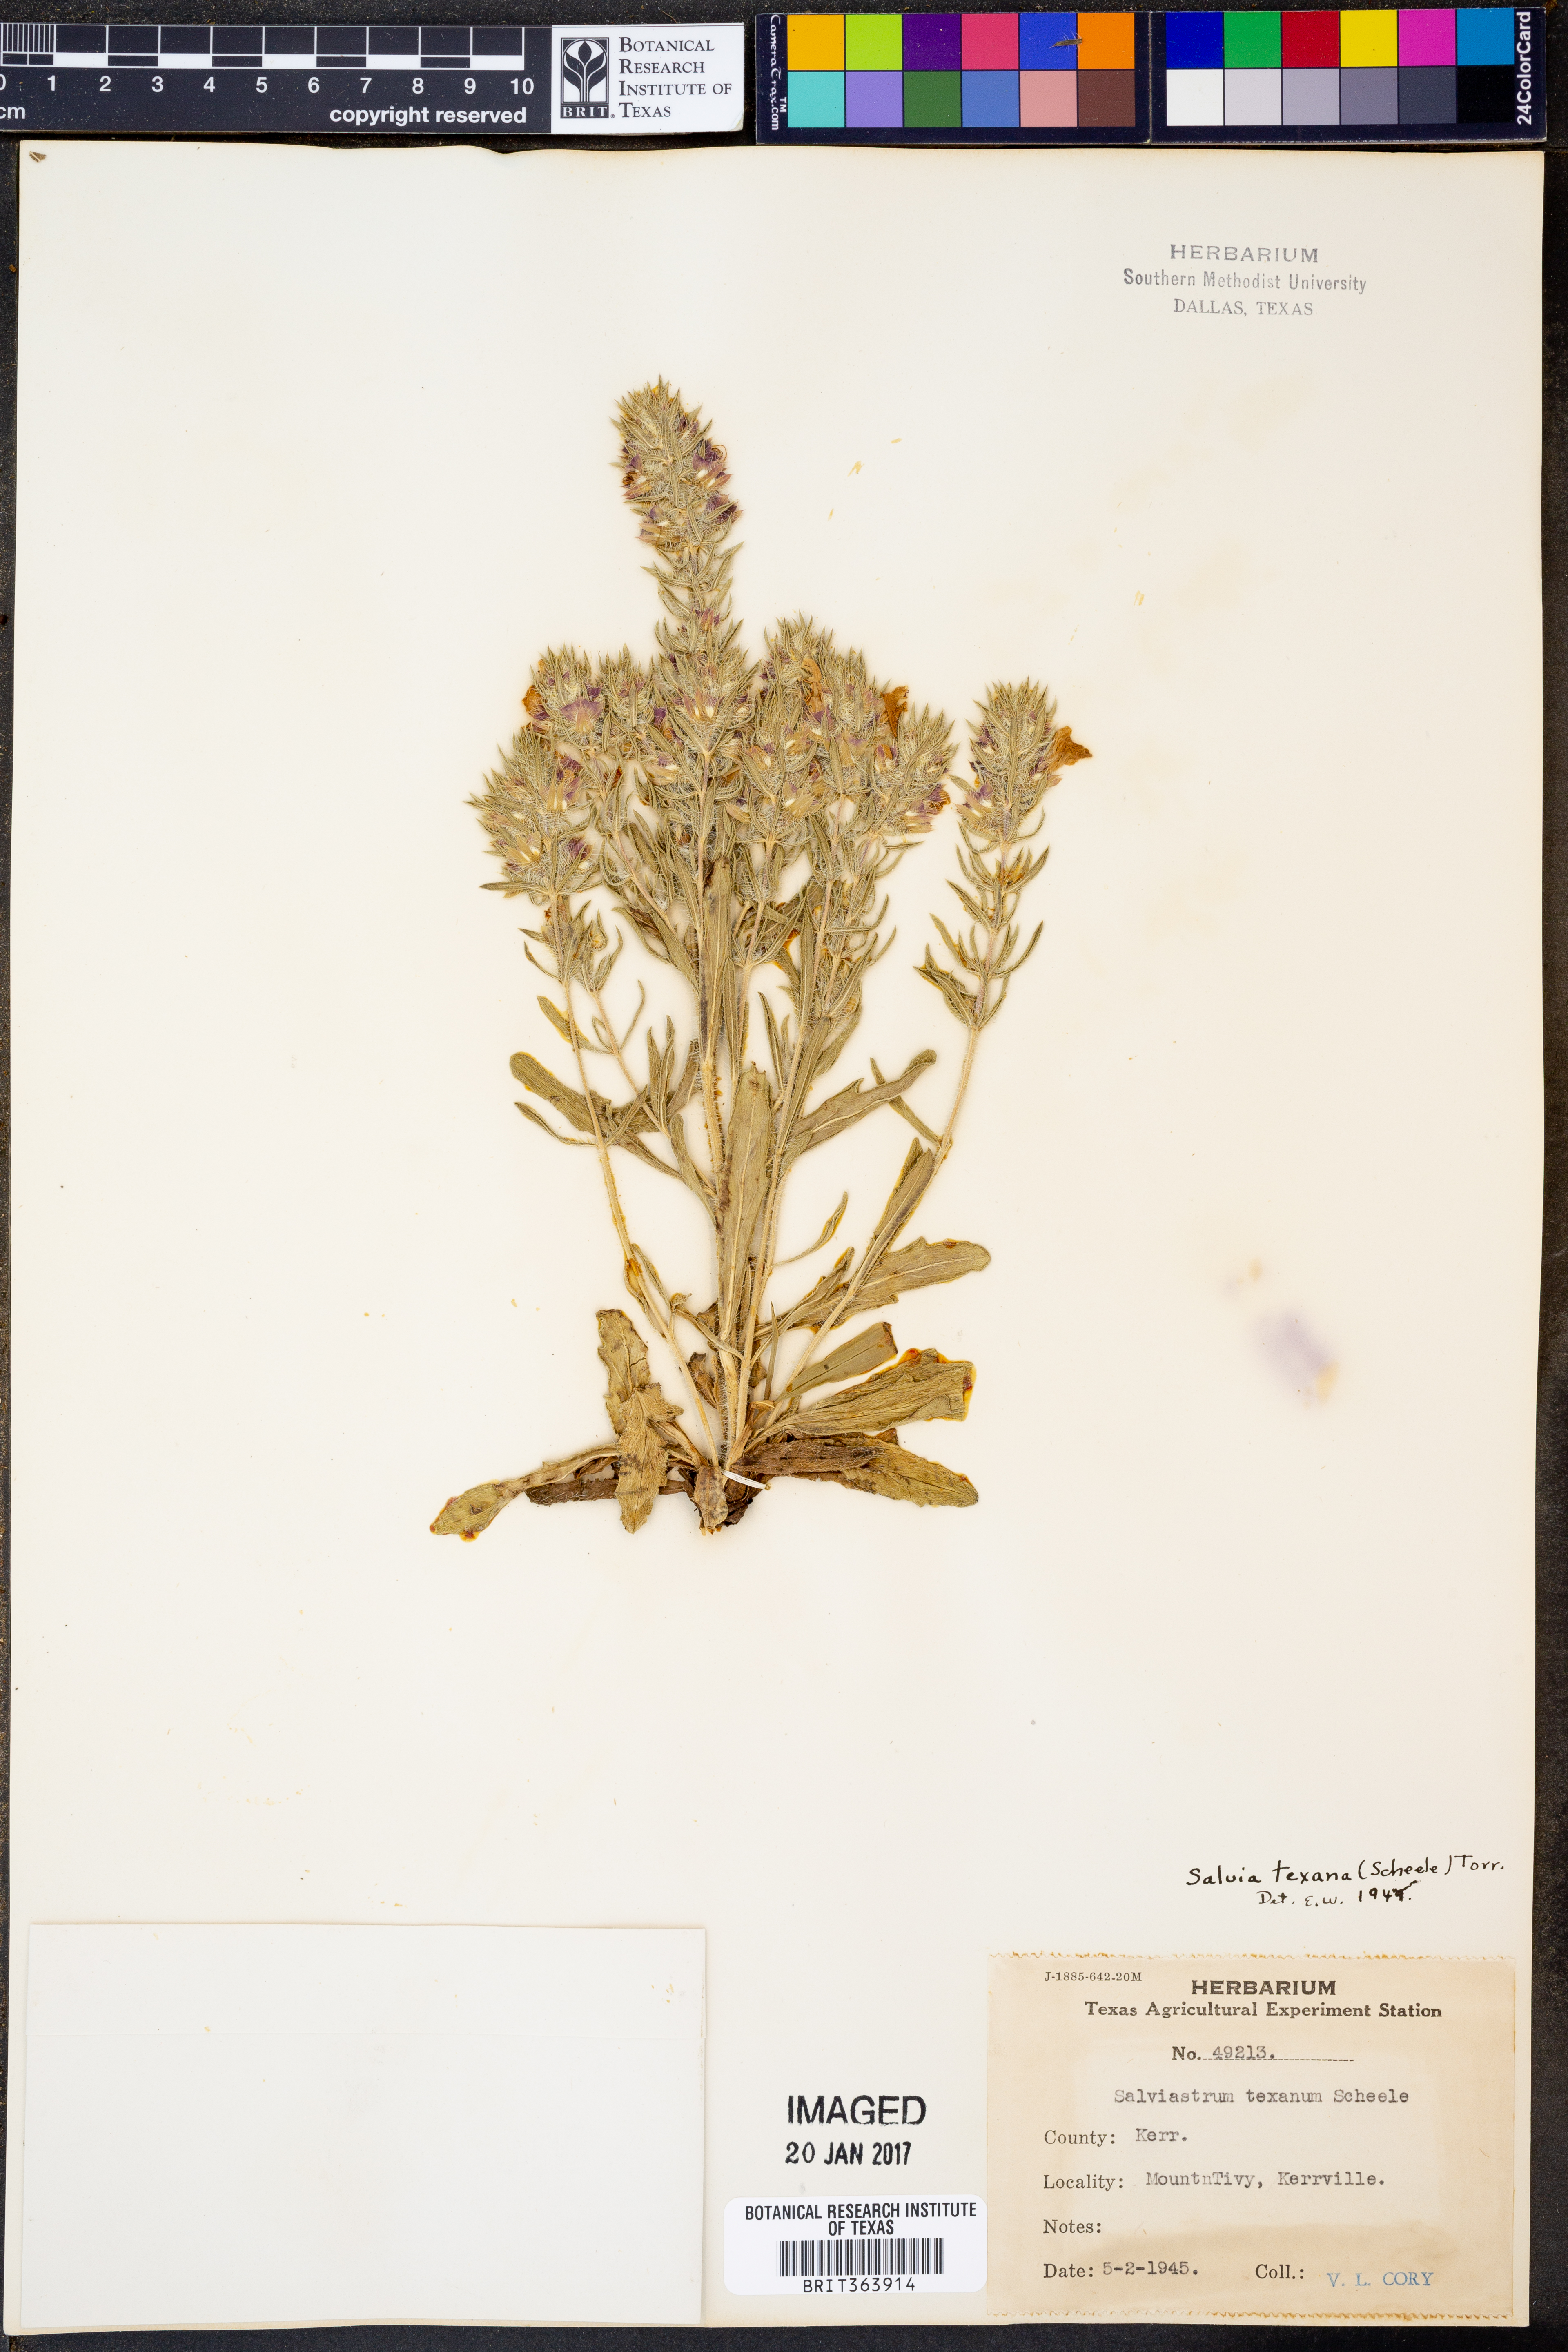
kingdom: Plantae
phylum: Tracheophyta
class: Magnoliopsida
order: Lamiales
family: Lamiaceae
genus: Salvia
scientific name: Salvia texana
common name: Texas sage
